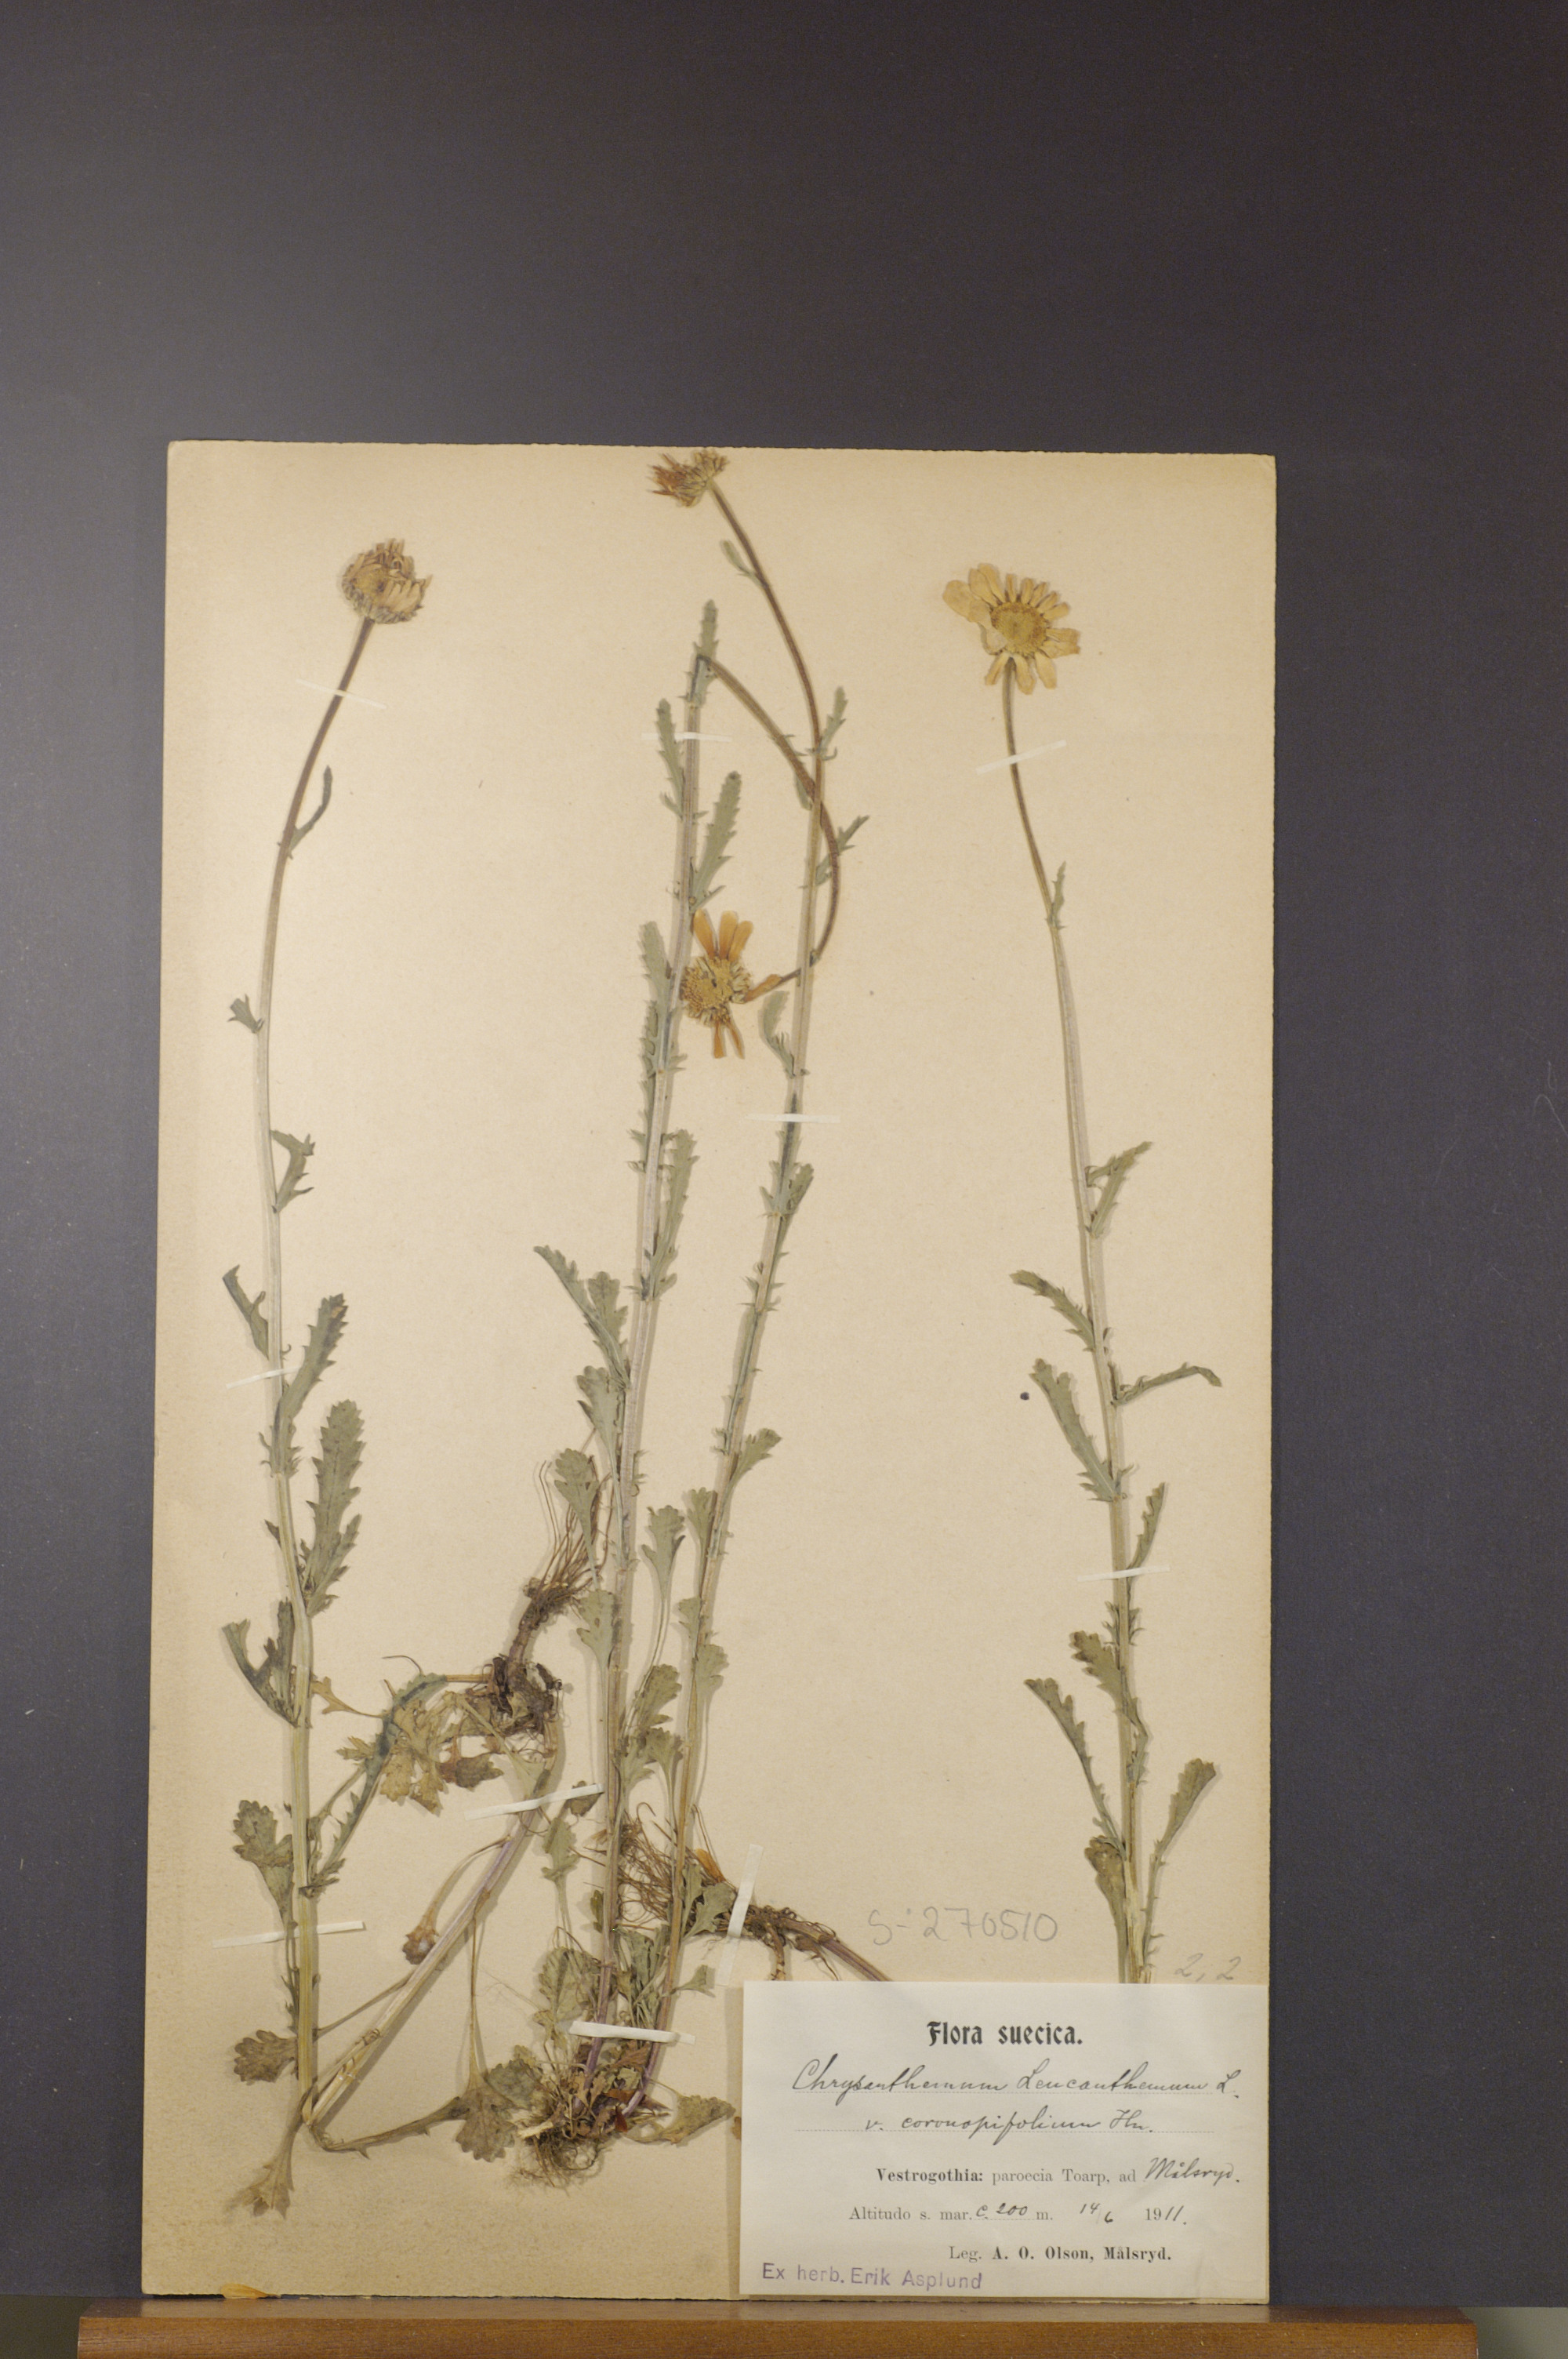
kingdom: Plantae
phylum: Tracheophyta
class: Magnoliopsida
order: Asterales
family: Asteraceae
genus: Leucanthemum
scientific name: Leucanthemum vulgare
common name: Oxeye daisy
